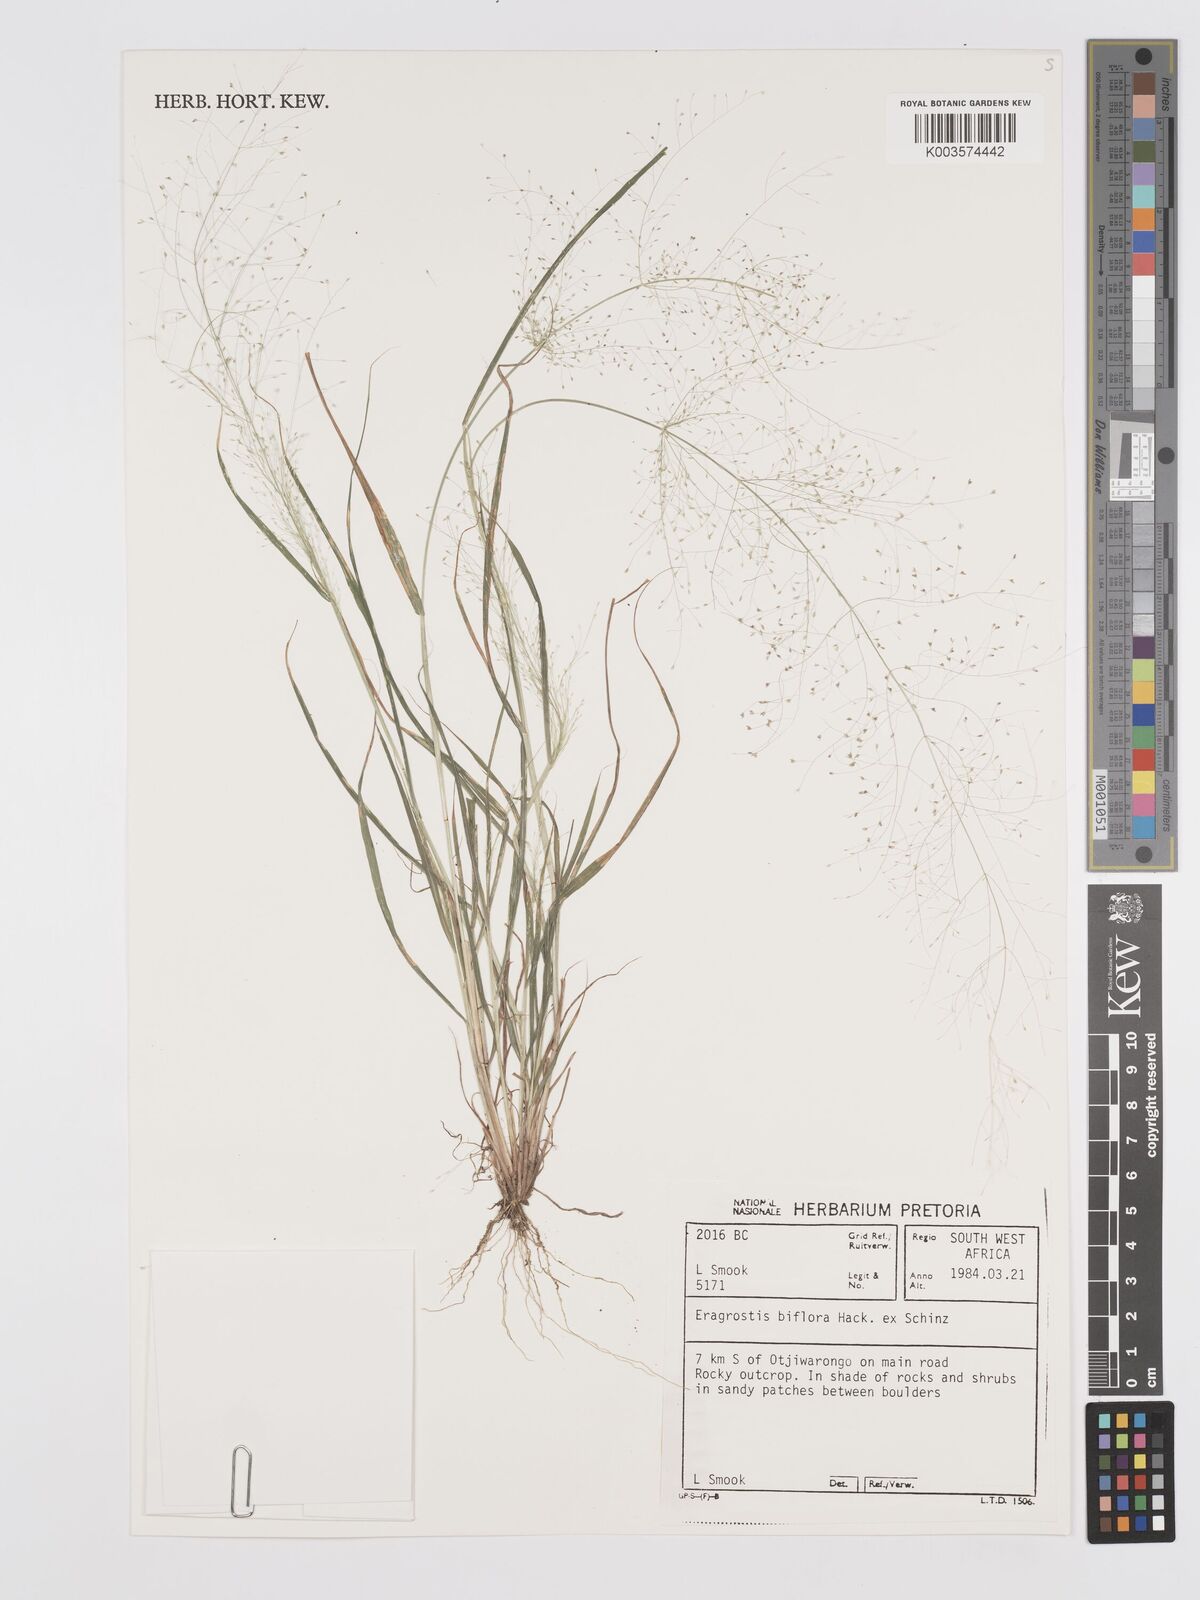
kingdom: Plantae
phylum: Tracheophyta
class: Liliopsida
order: Poales
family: Poaceae
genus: Eragrostis
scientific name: Eragrostis biflora
